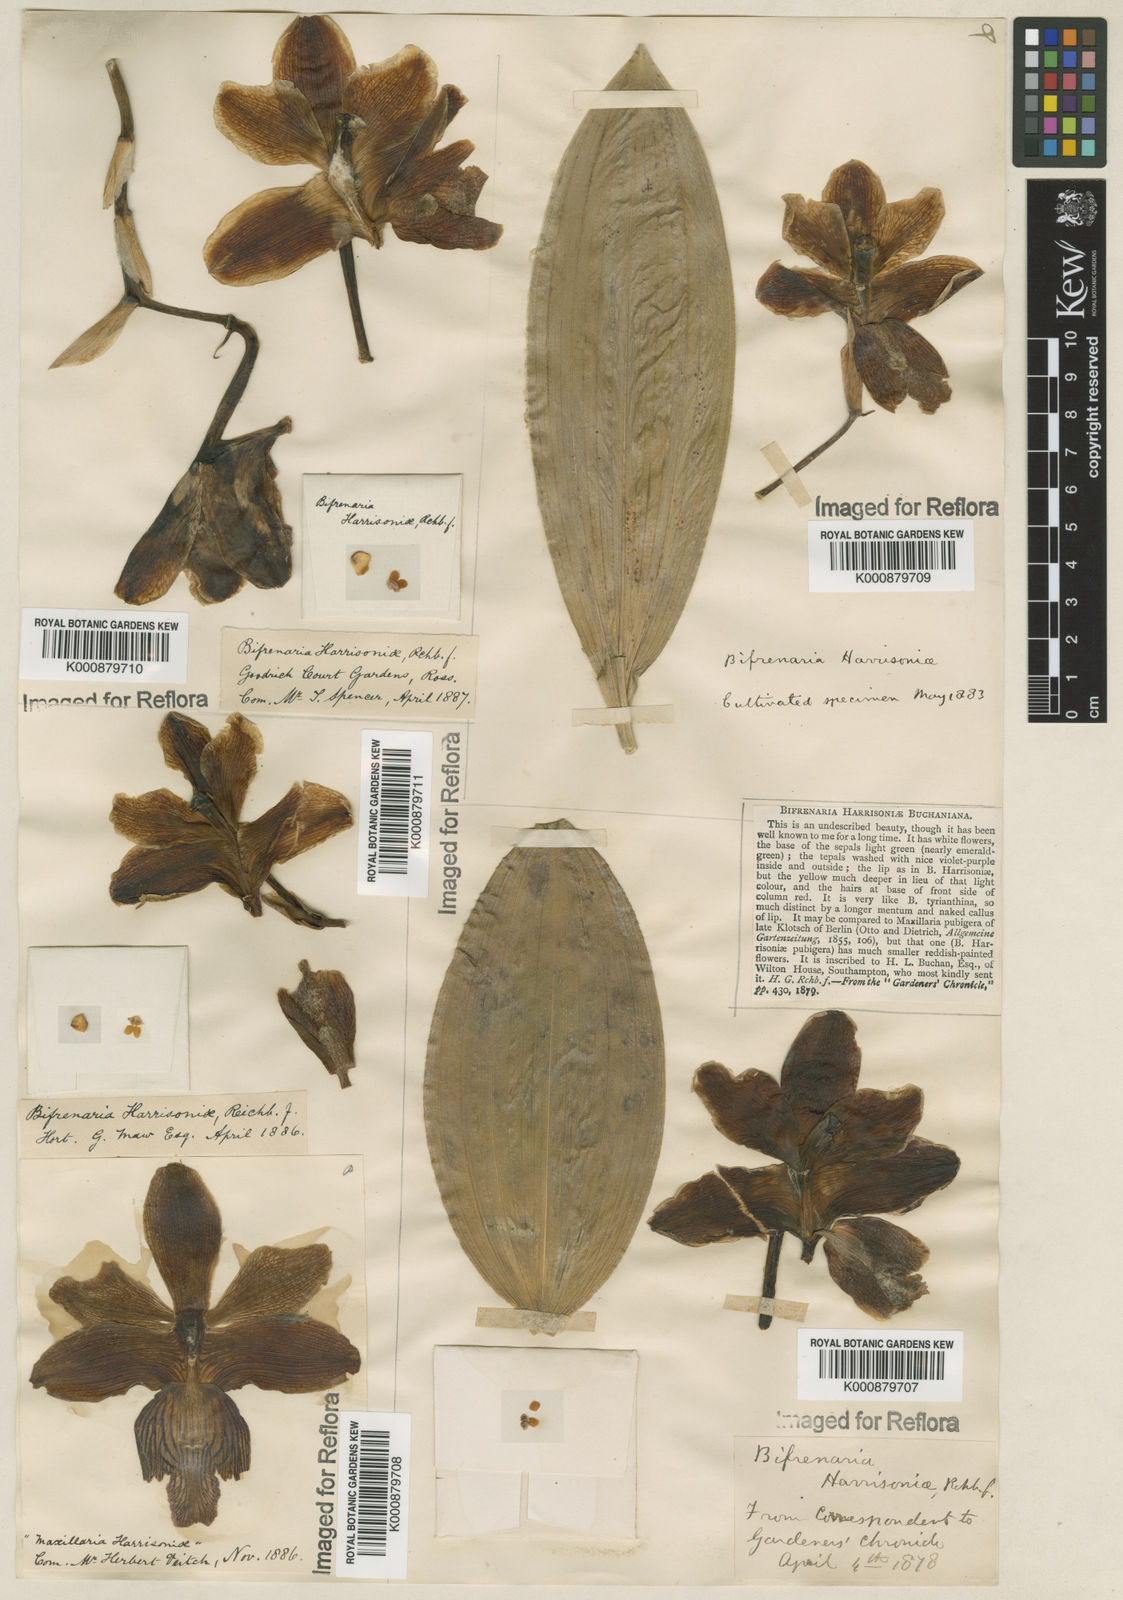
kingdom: Plantae
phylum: Tracheophyta
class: Liliopsida
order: Asparagales
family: Orchidaceae
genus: Bifrenaria
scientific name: Bifrenaria harrisoniae
